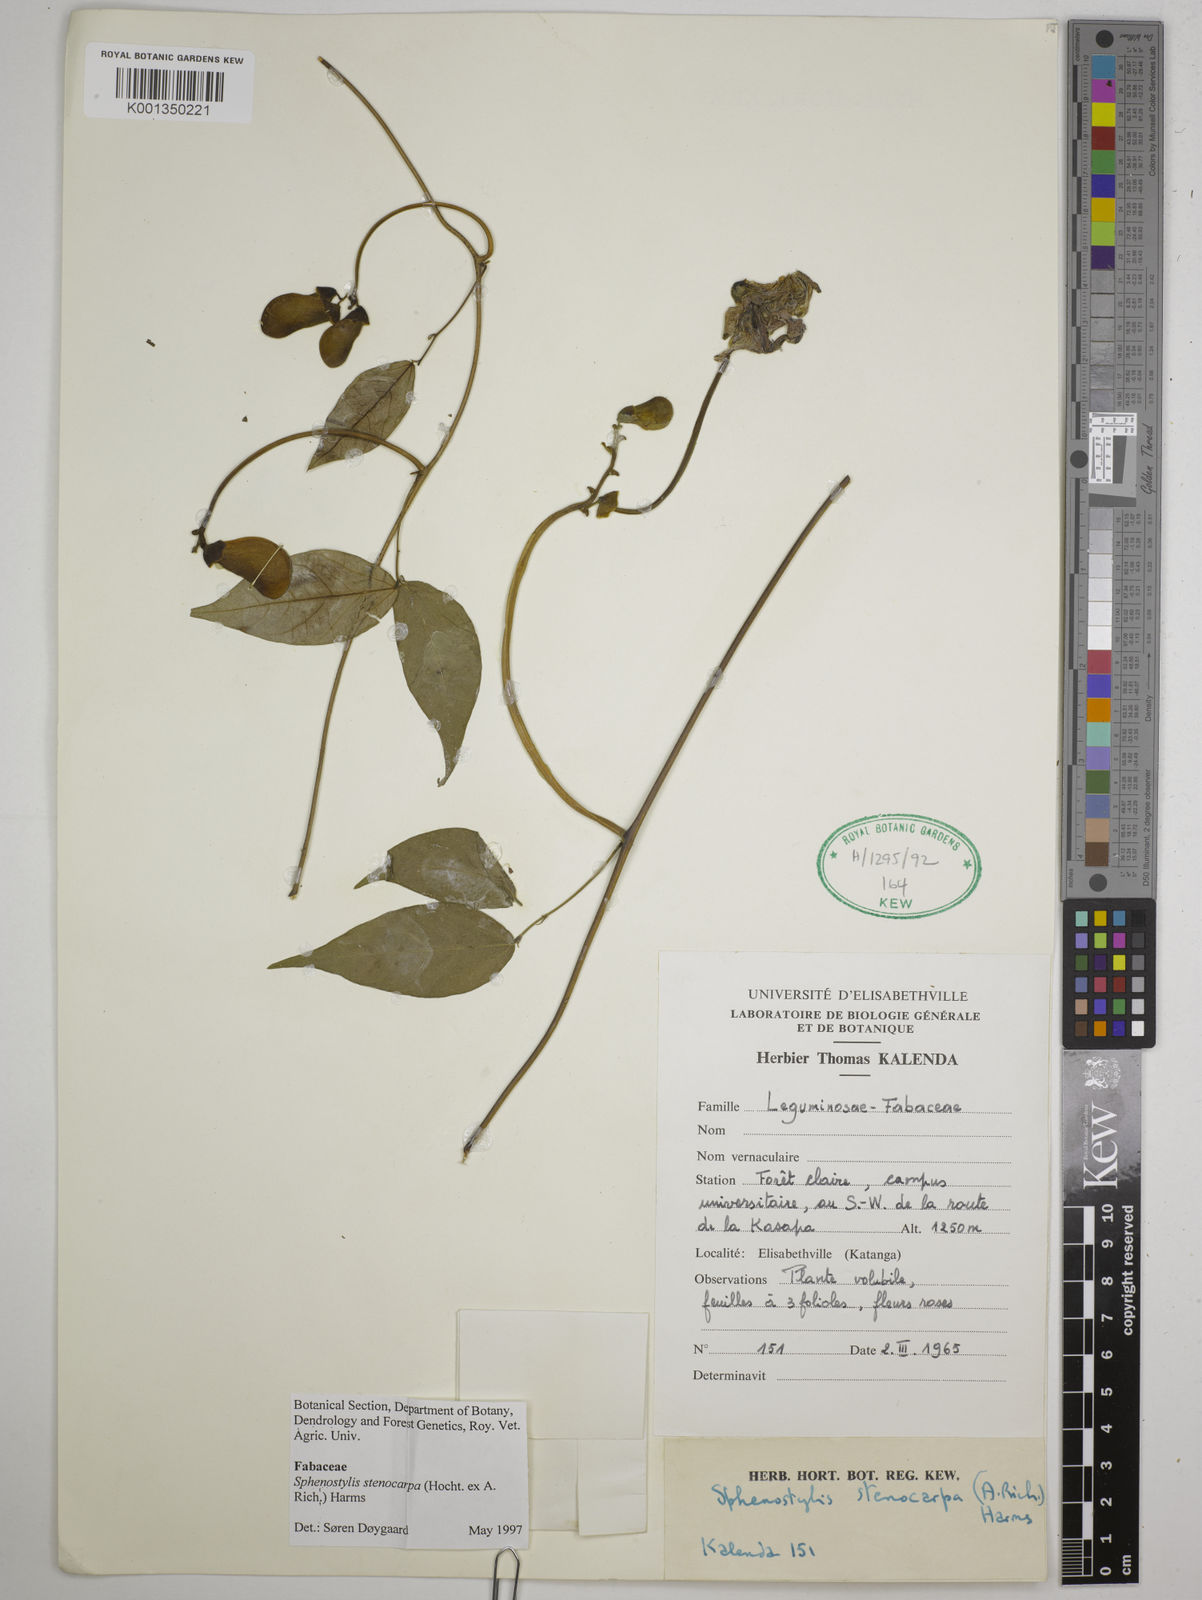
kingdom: Plantae
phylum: Tracheophyta
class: Magnoliopsida
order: Fabales
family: Fabaceae
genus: Sphenostylis
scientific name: Sphenostylis stenocarpa
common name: Yam-pea
